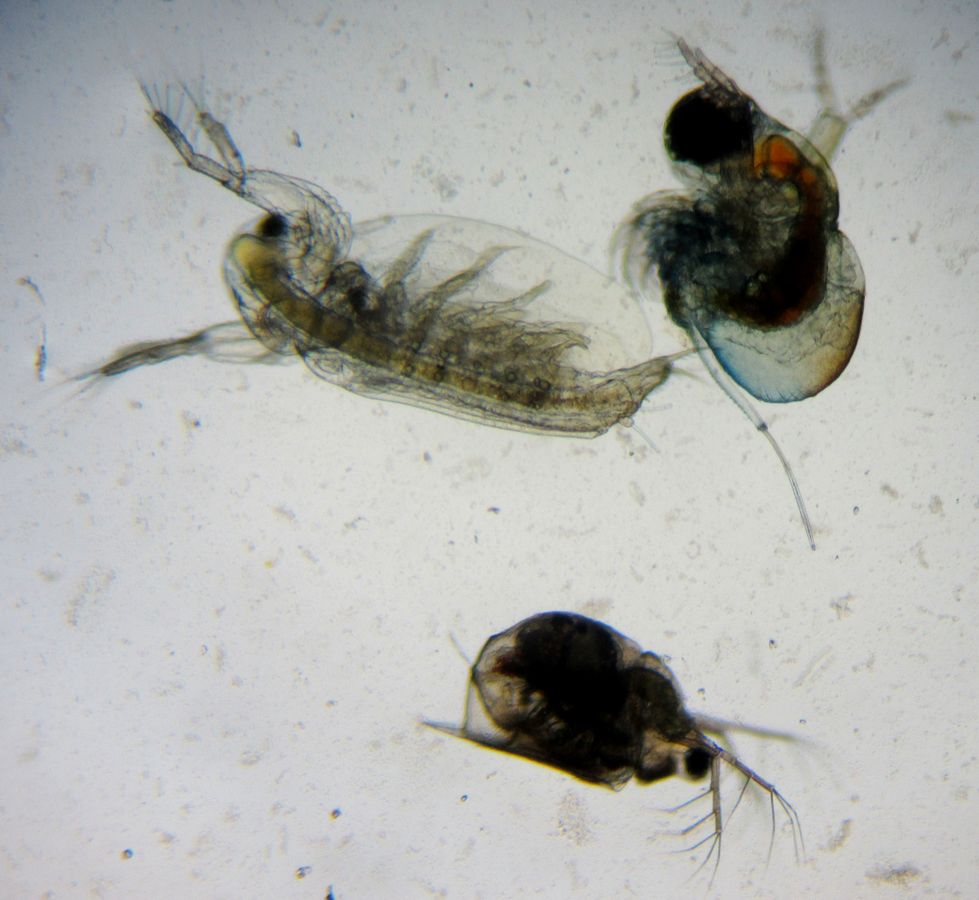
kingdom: Animalia
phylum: Arthropoda
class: Branchiopoda
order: Diplostraca
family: Daphniidae
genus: Scapholeberis
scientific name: Scapholeberis microcephala
